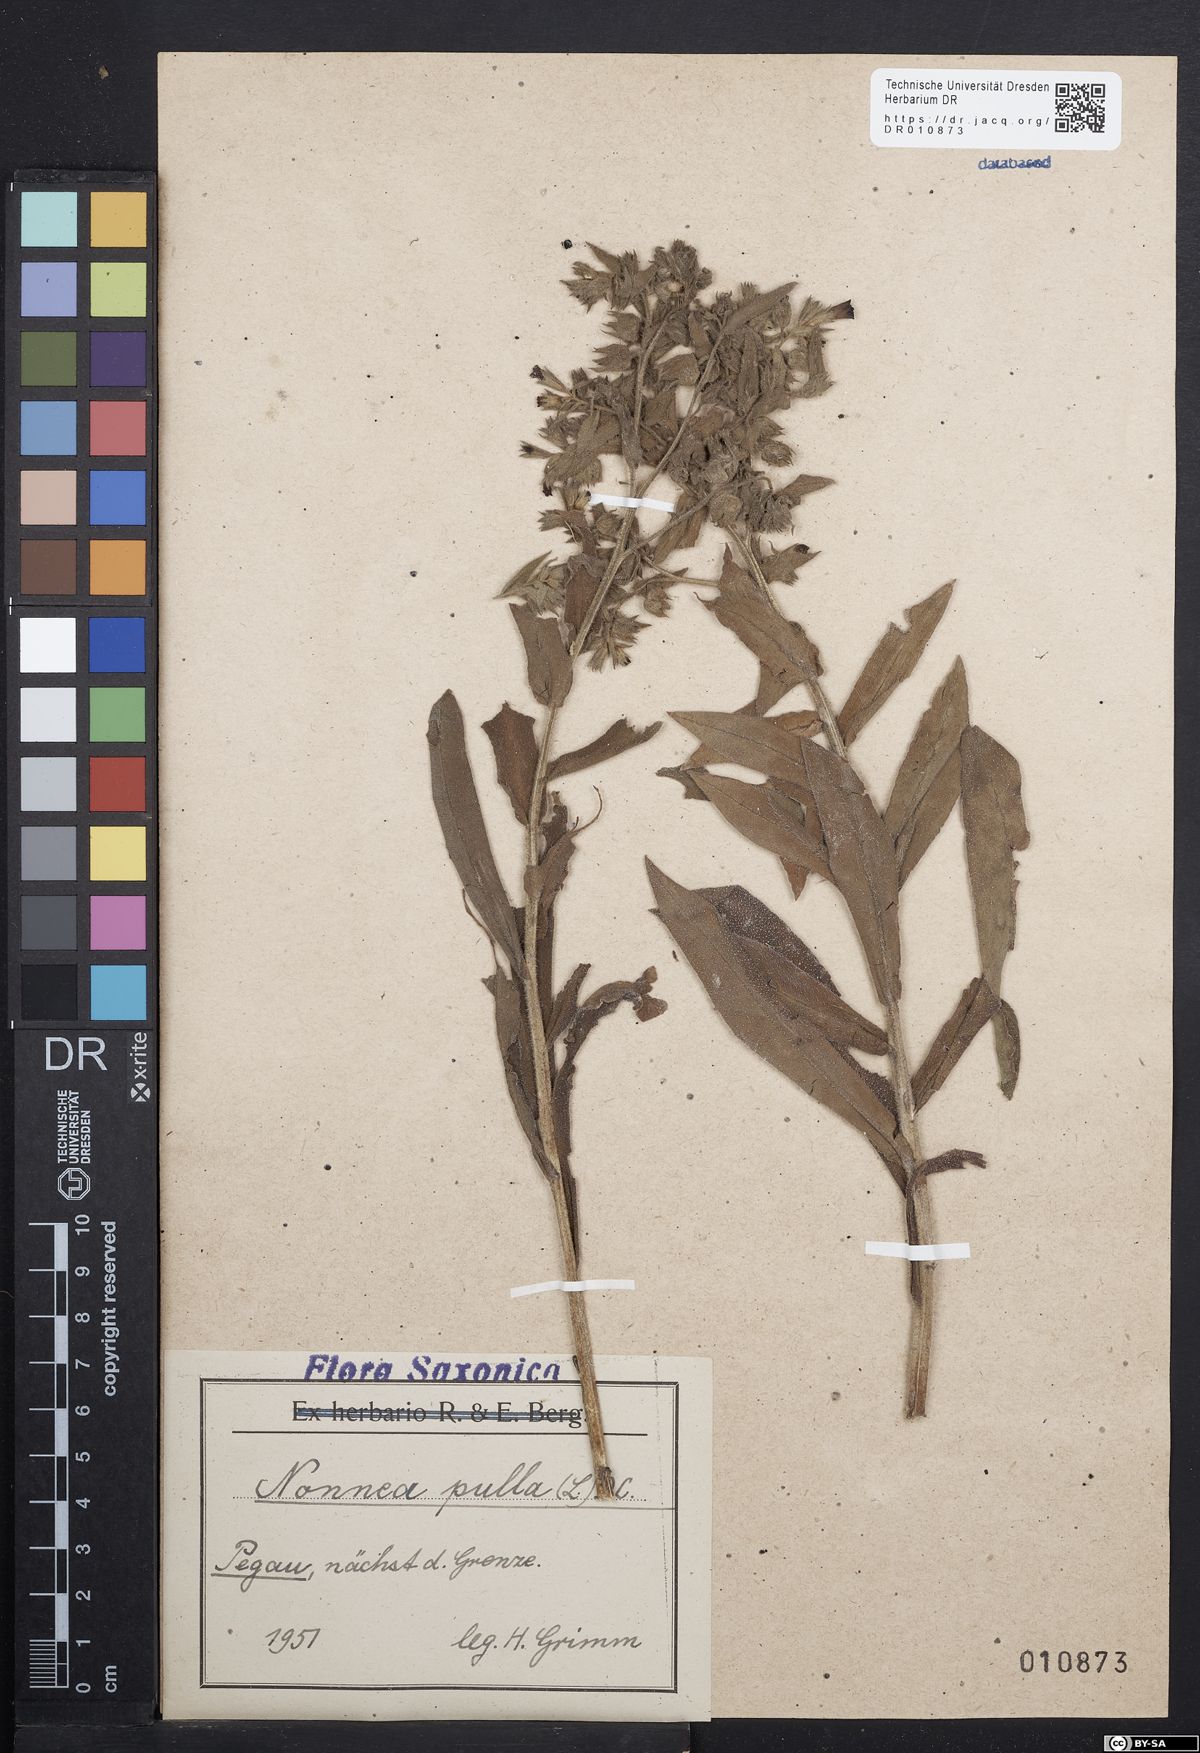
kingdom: Plantae
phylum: Tracheophyta
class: Magnoliopsida
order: Boraginales
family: Boraginaceae
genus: Nonea
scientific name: Nonea pulla
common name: Brown nonea
